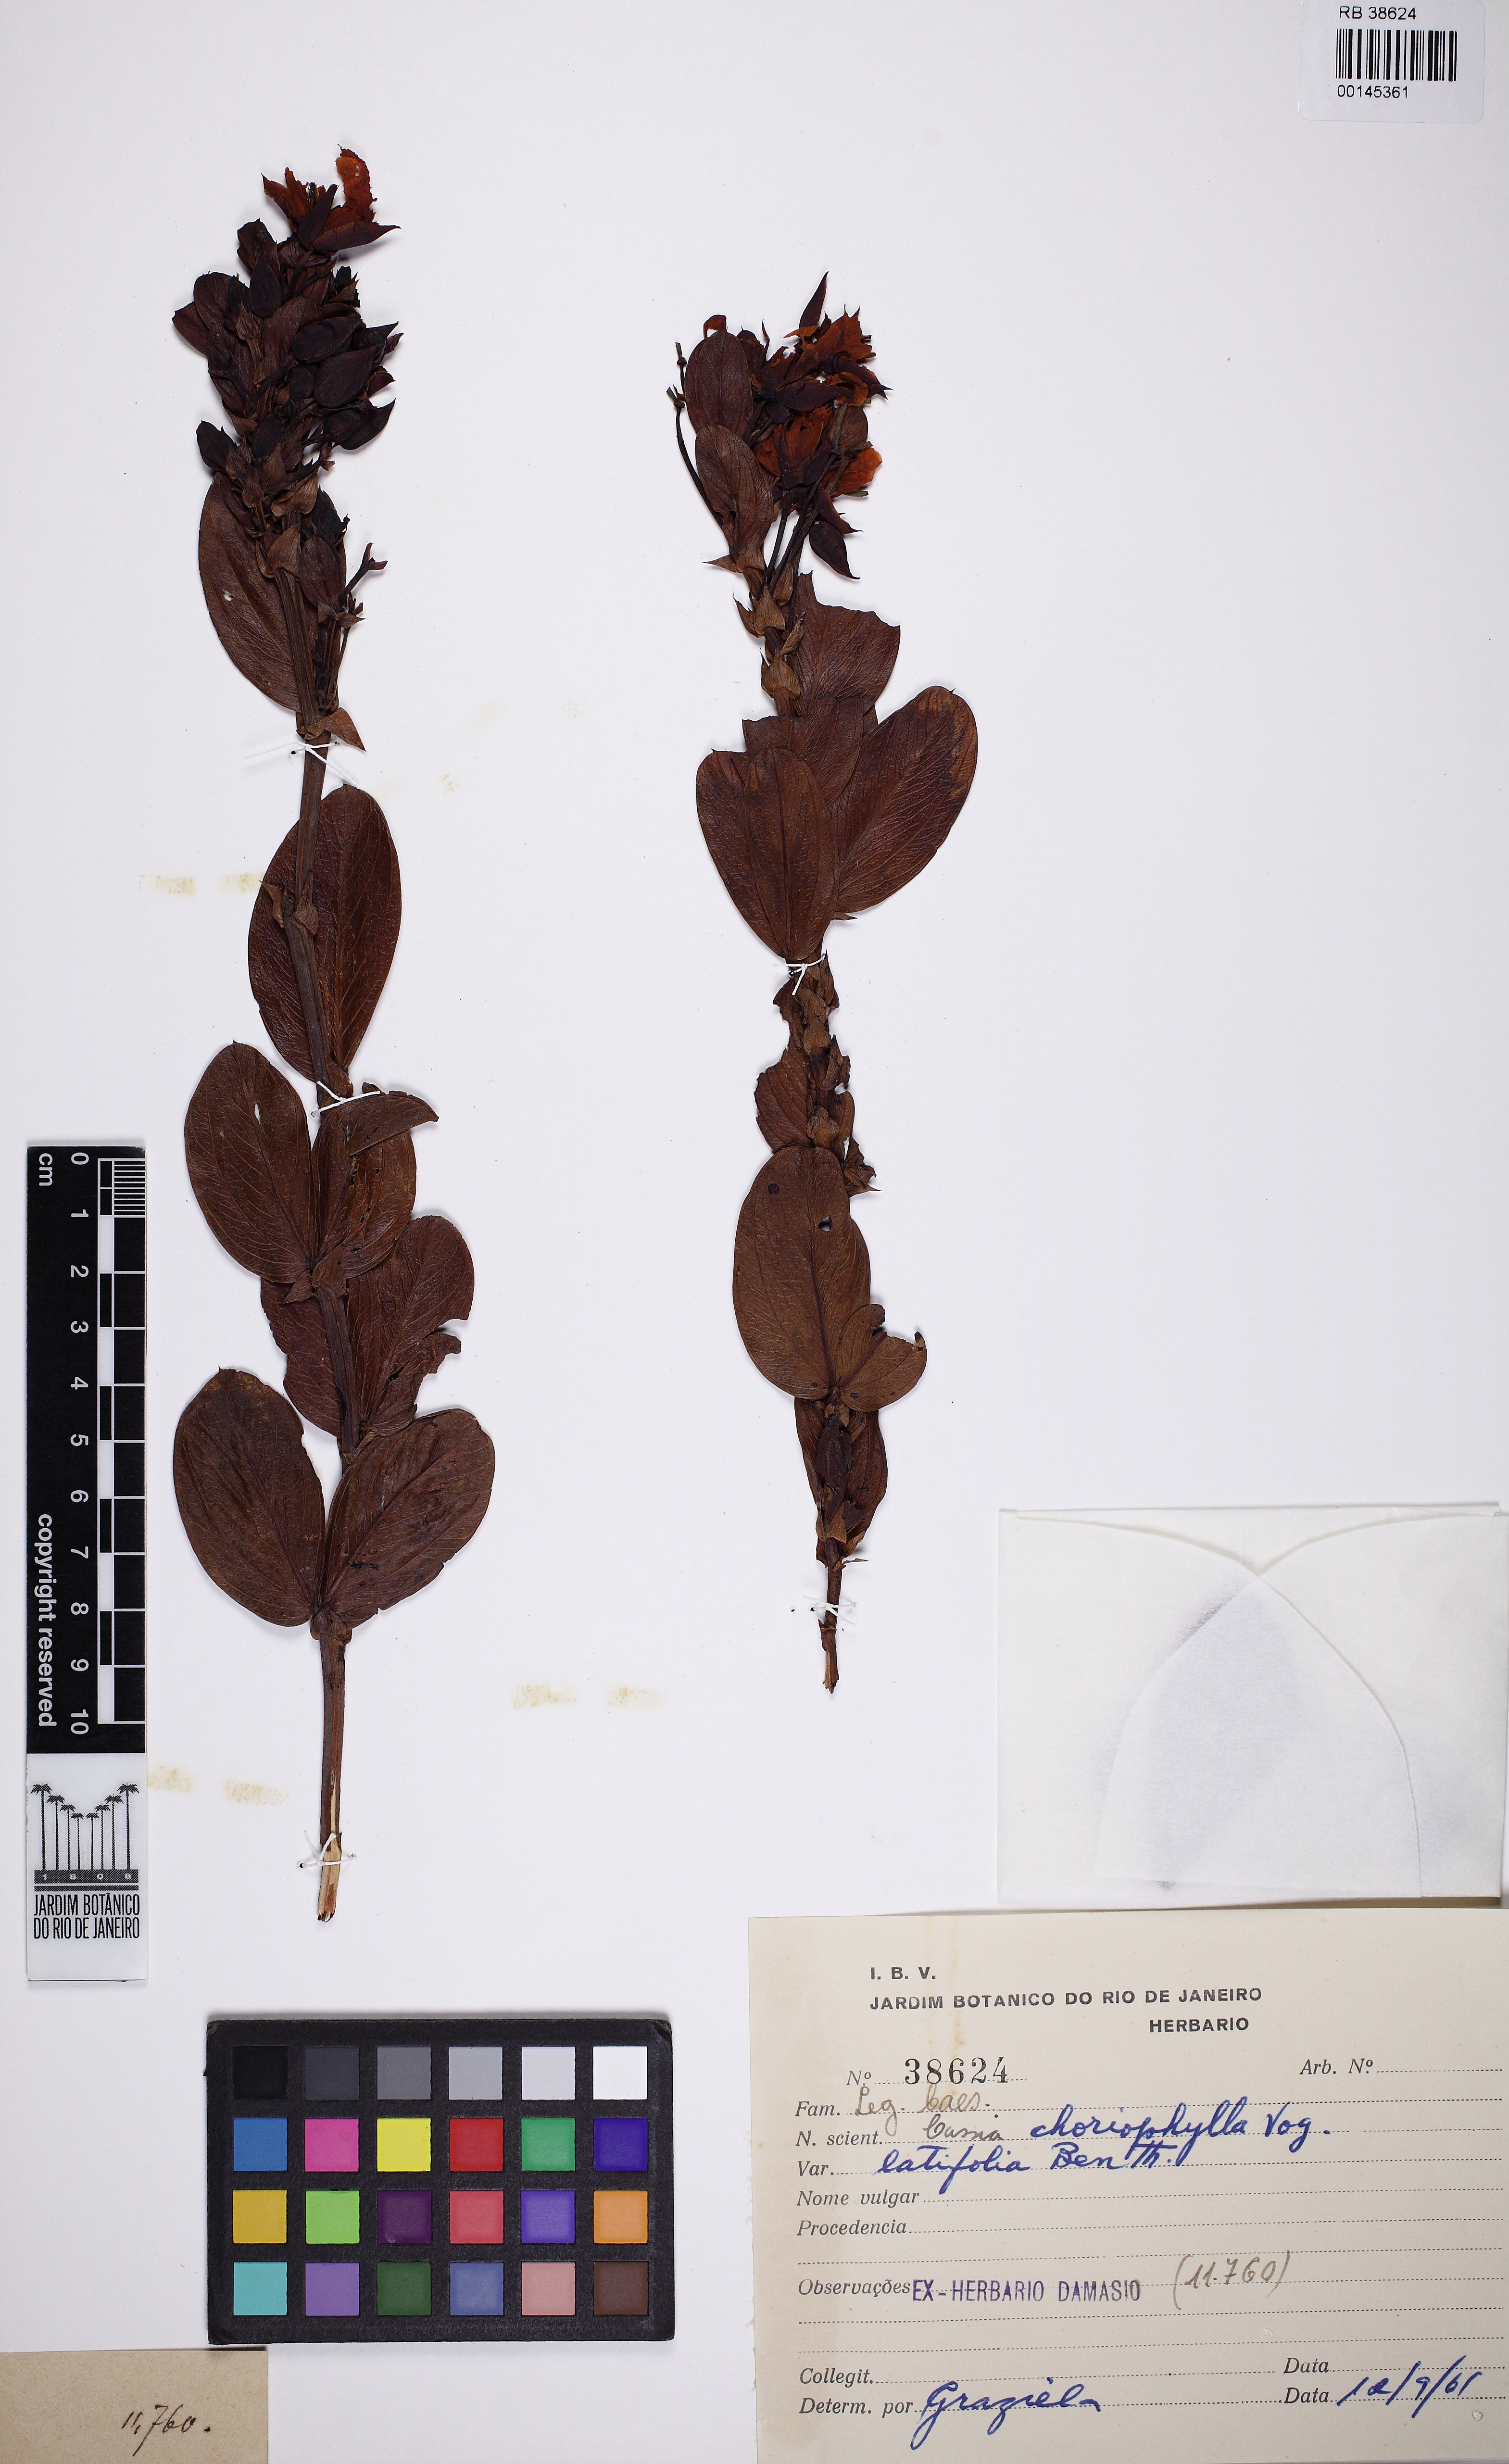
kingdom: Plantae
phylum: Tracheophyta
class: Magnoliopsida
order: Fabales
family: Fabaceae
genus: Chamaecrista
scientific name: Chamaecrista latifolia
